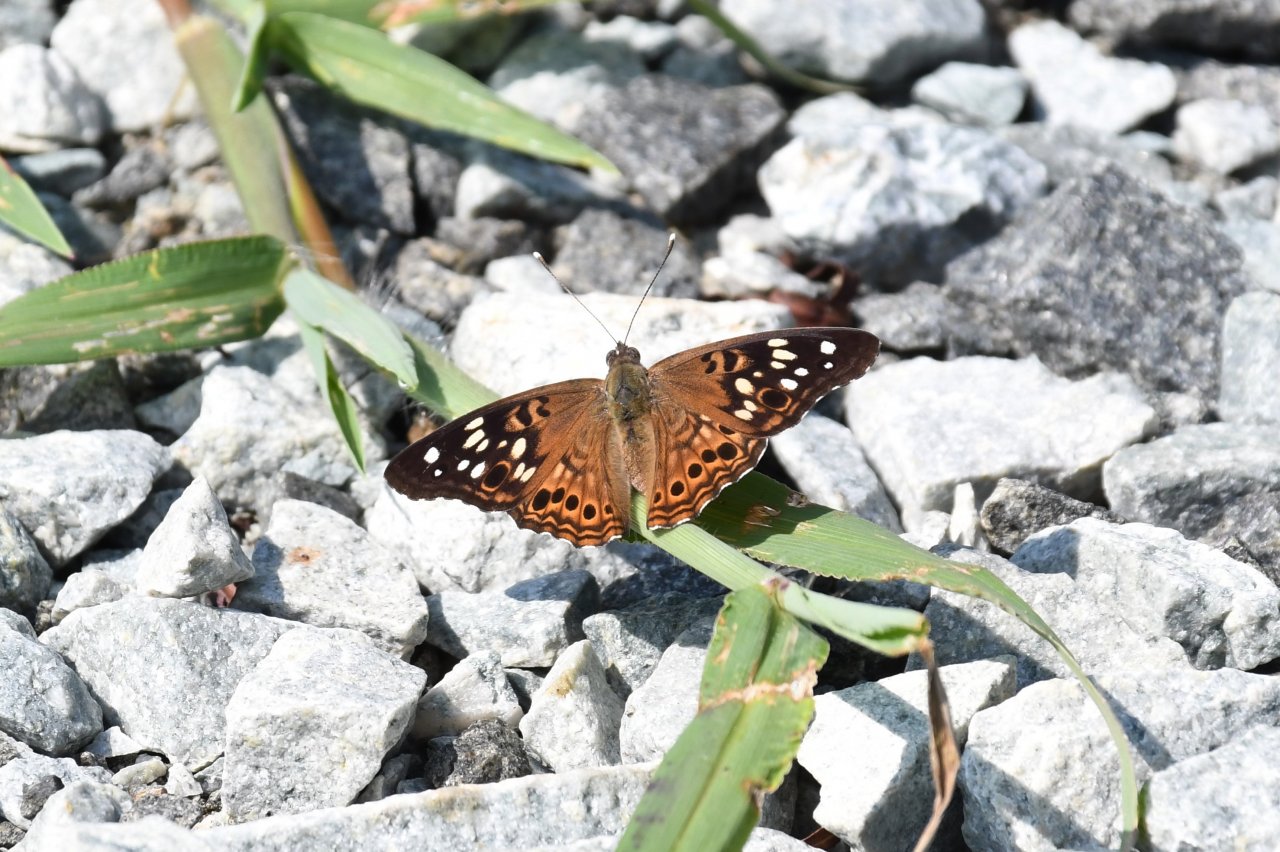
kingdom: Animalia
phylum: Arthropoda
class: Insecta
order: Lepidoptera
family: Nymphalidae
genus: Asterocampa
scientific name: Asterocampa celtis
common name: Hackberry Emperor
